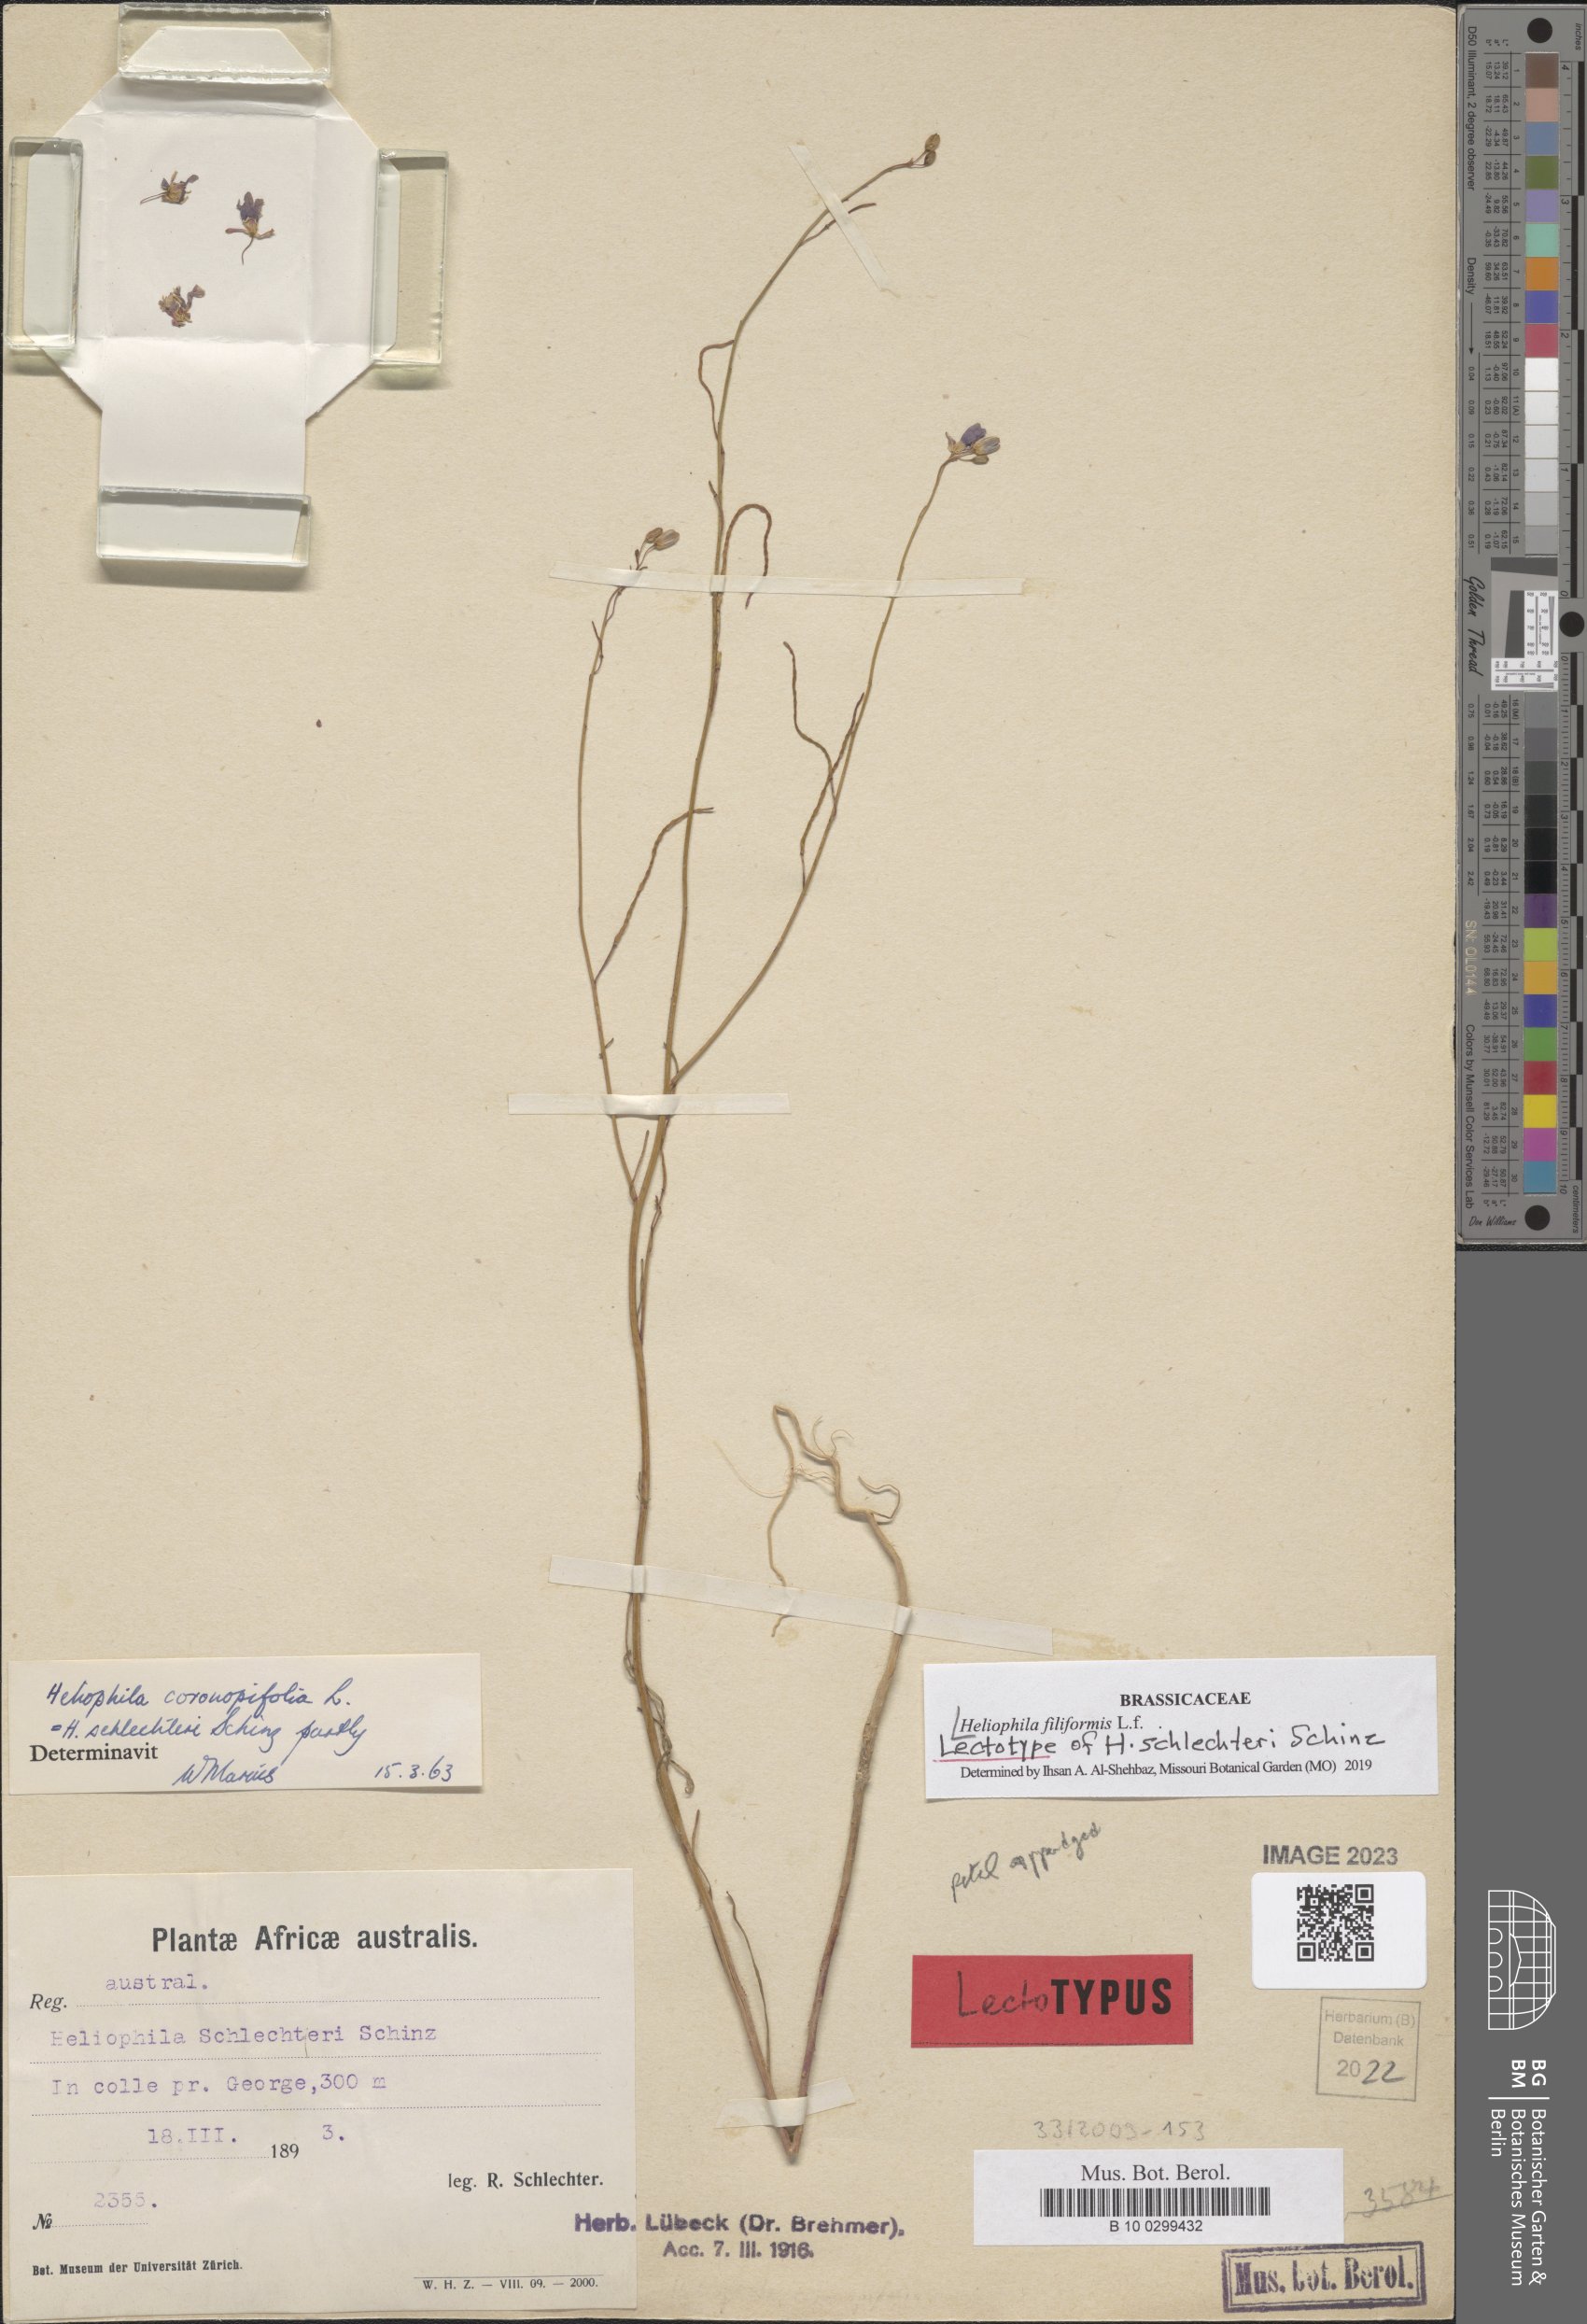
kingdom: Plantae
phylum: Tracheophyta
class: Magnoliopsida
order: Brassicales
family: Brassicaceae
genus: Heliophila
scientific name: Heliophila coronopifolia
